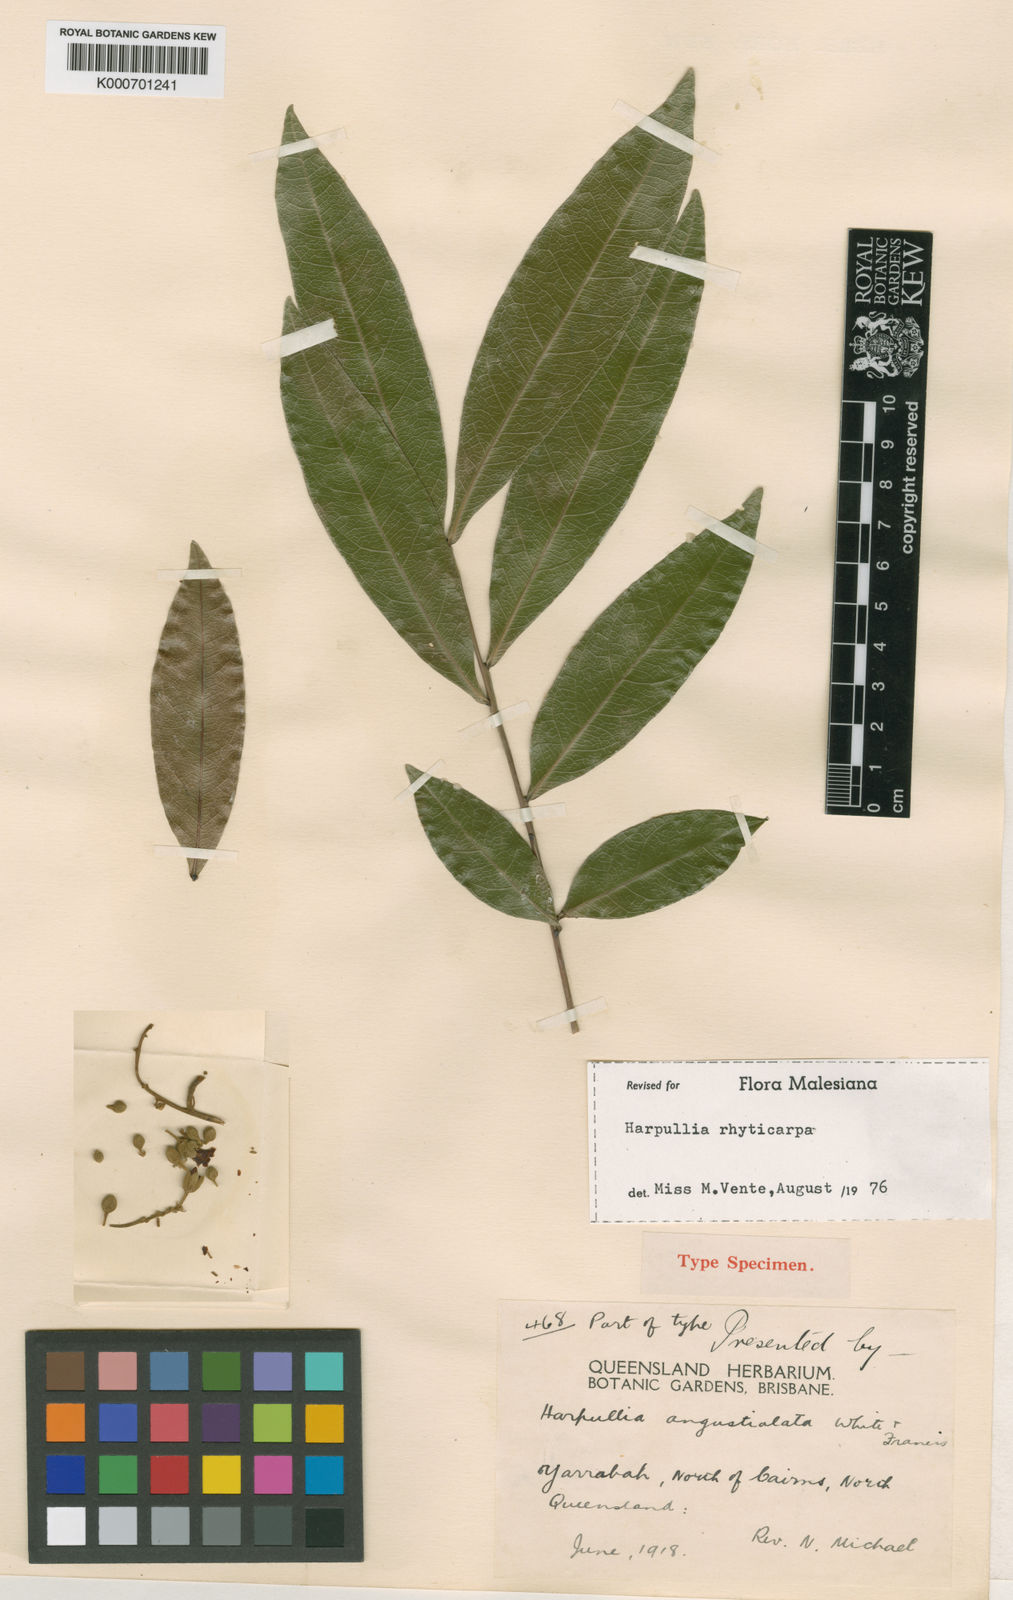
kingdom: Plantae
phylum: Tracheophyta
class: Magnoliopsida
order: Sapindales
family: Sapindaceae
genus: Harpullia
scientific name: Harpullia rhyticarpa
